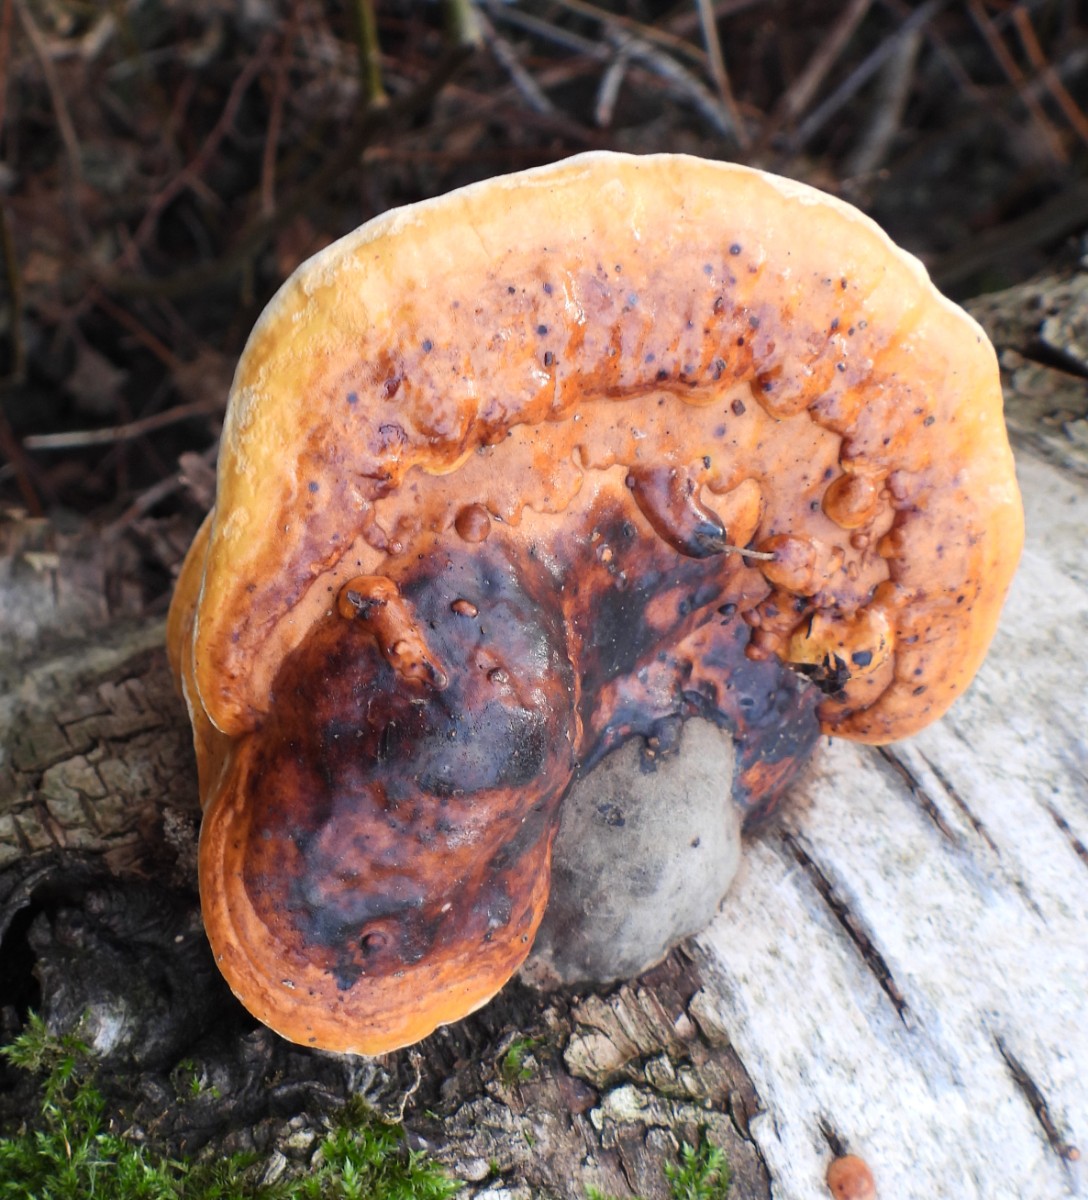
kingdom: Fungi
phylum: Basidiomycota
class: Agaricomycetes
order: Polyporales
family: Fomitopsidaceae
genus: Fomitopsis
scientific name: Fomitopsis pinicola
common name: randbæltet hovporesvamp
